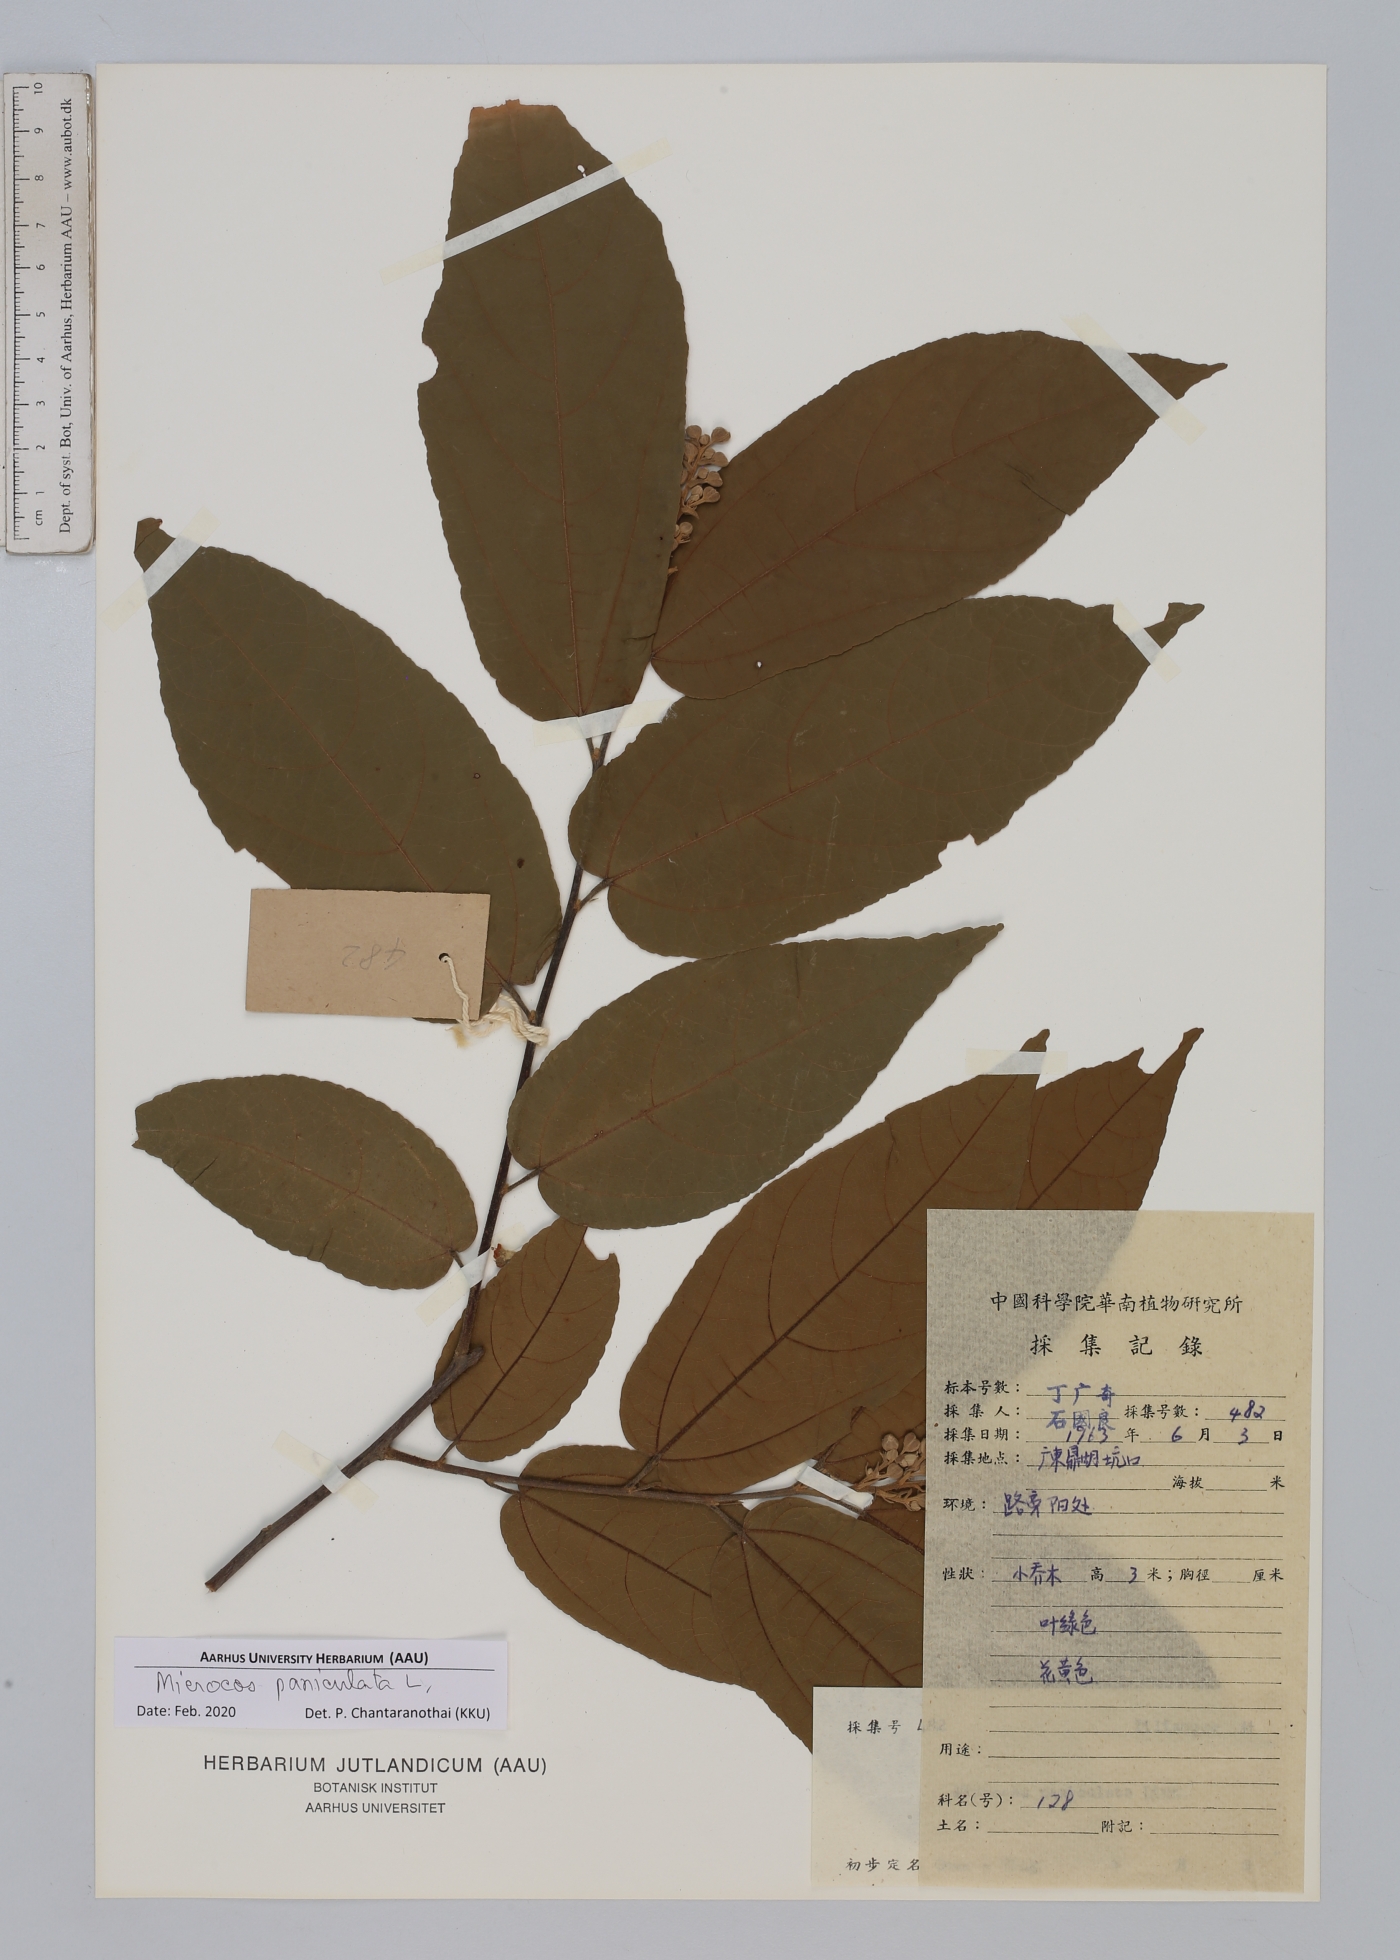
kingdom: Plantae
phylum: Tracheophyta
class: Magnoliopsida
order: Malvales
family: Malvaceae
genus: Microcos
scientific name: Microcos paniculata
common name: Microcos
